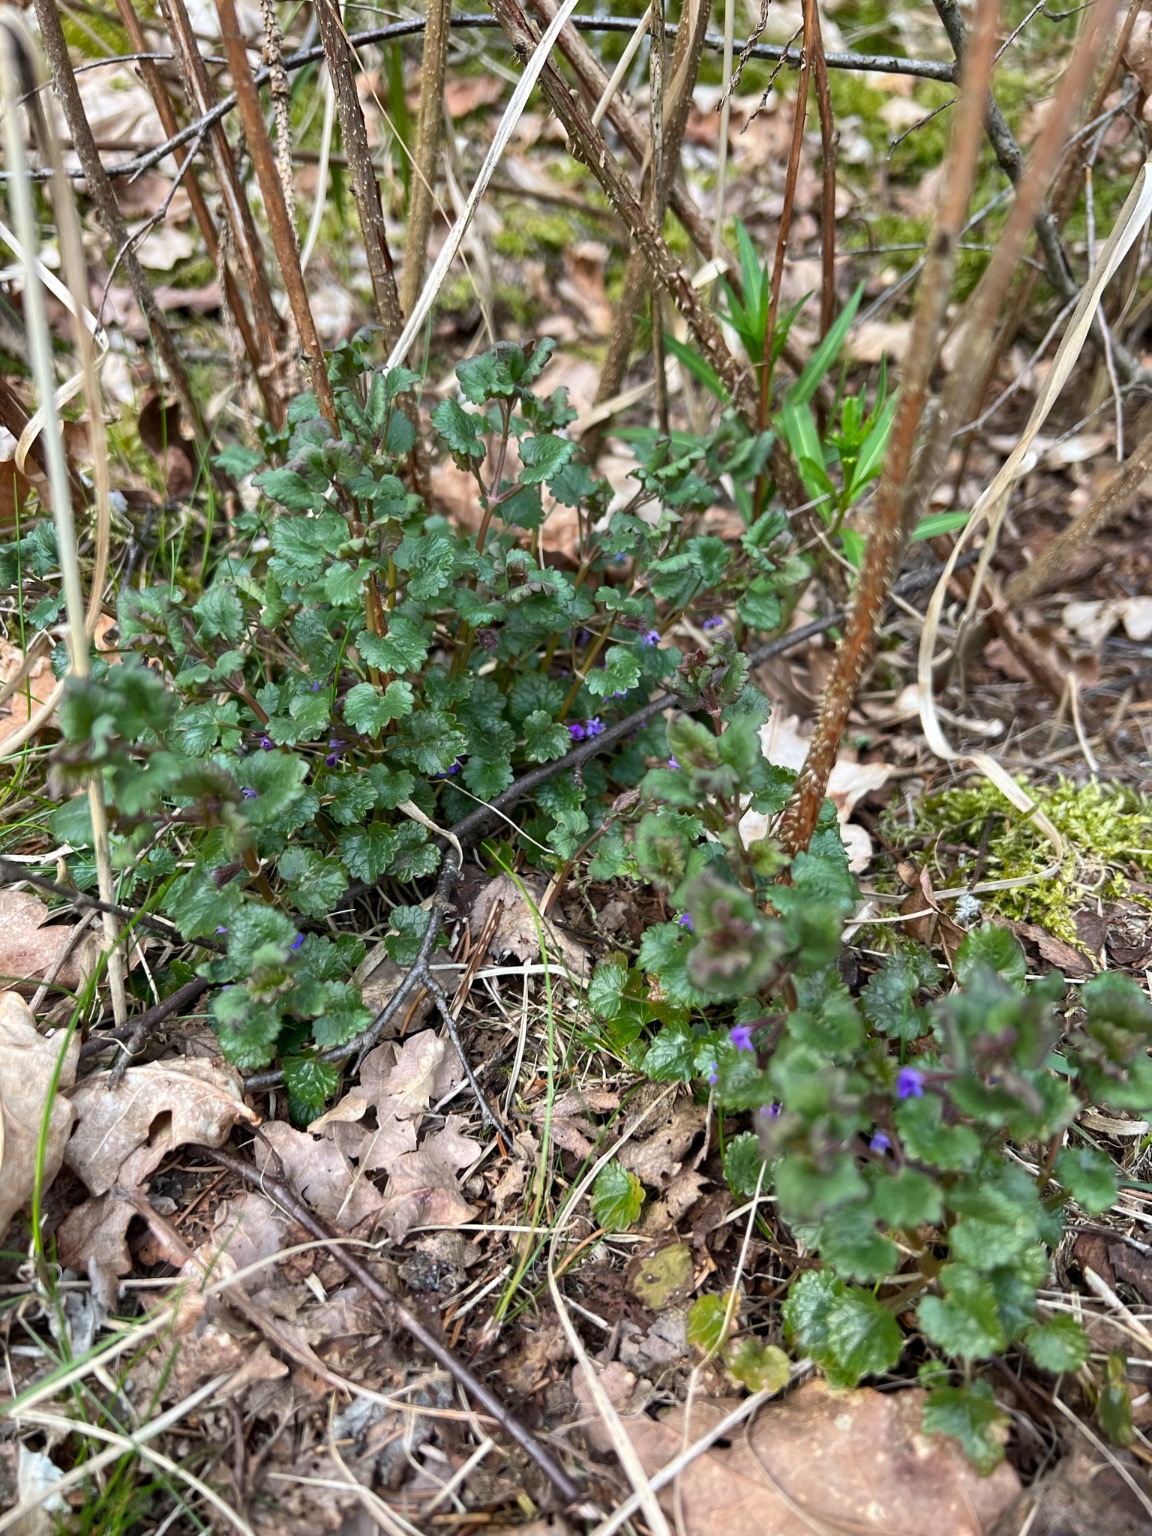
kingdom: Plantae
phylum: Tracheophyta
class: Magnoliopsida
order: Lamiales
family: Lamiaceae
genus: Glechoma
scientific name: Glechoma hederacea
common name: Korsknap
